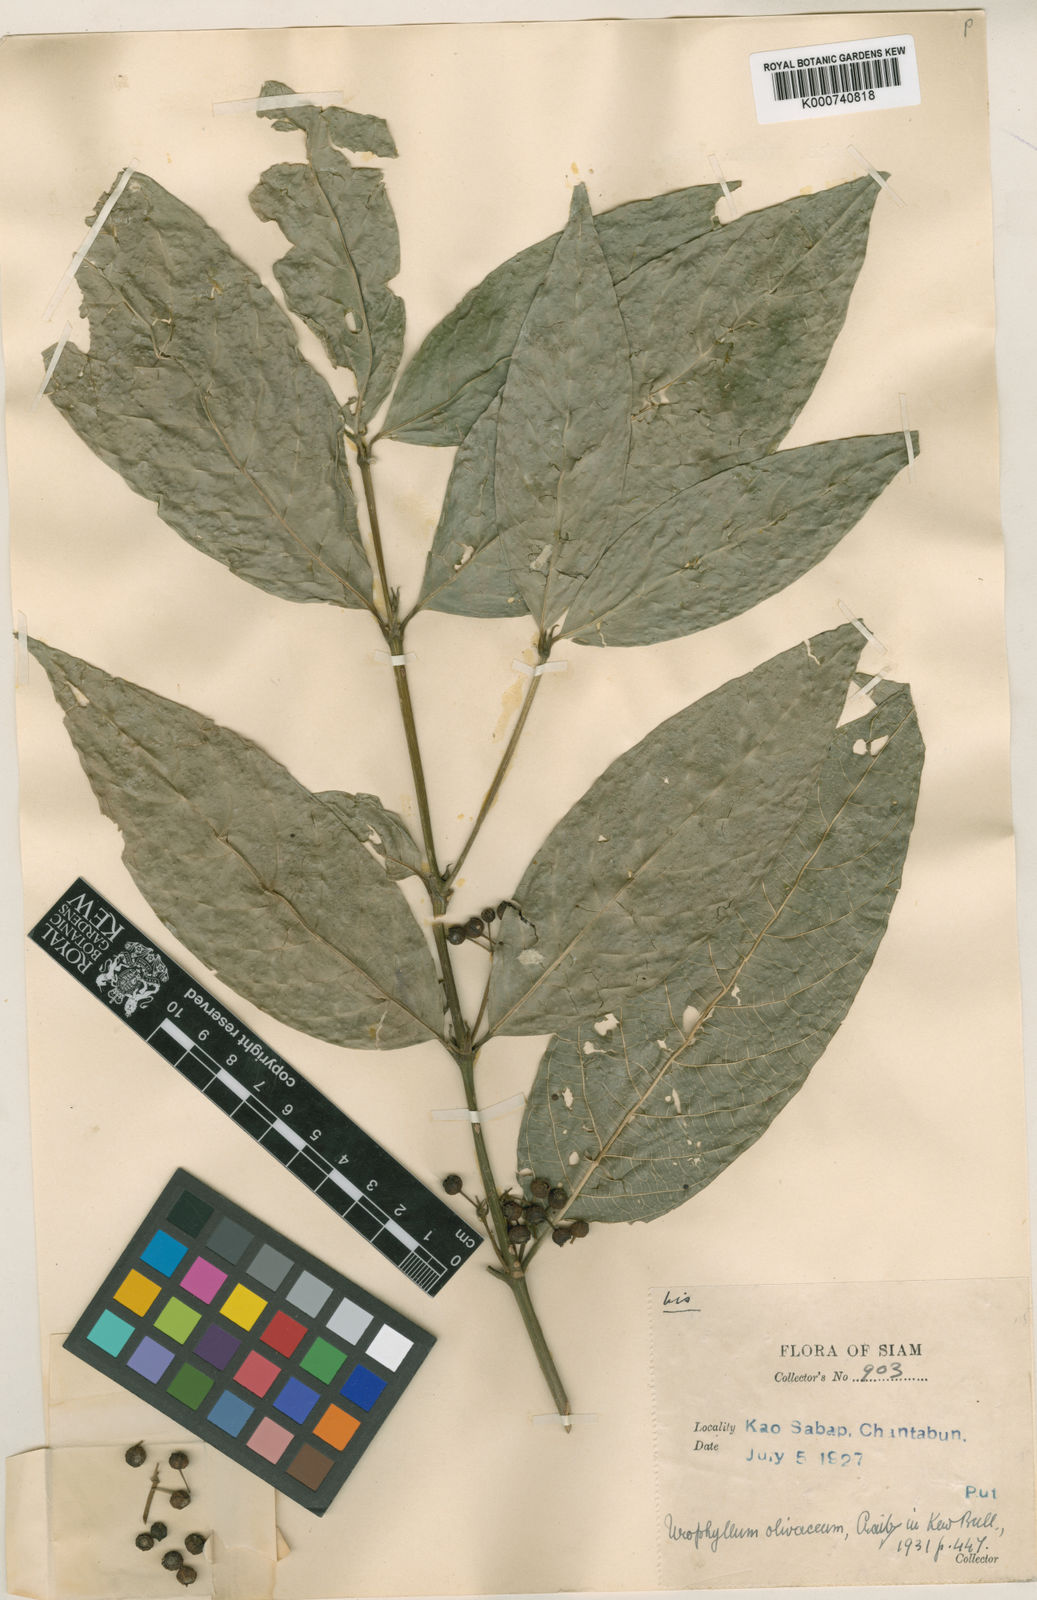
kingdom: Plantae
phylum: Tracheophyta
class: Magnoliopsida
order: Gentianales
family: Rubiaceae
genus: Urophyllum
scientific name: Urophyllum olivaceum
